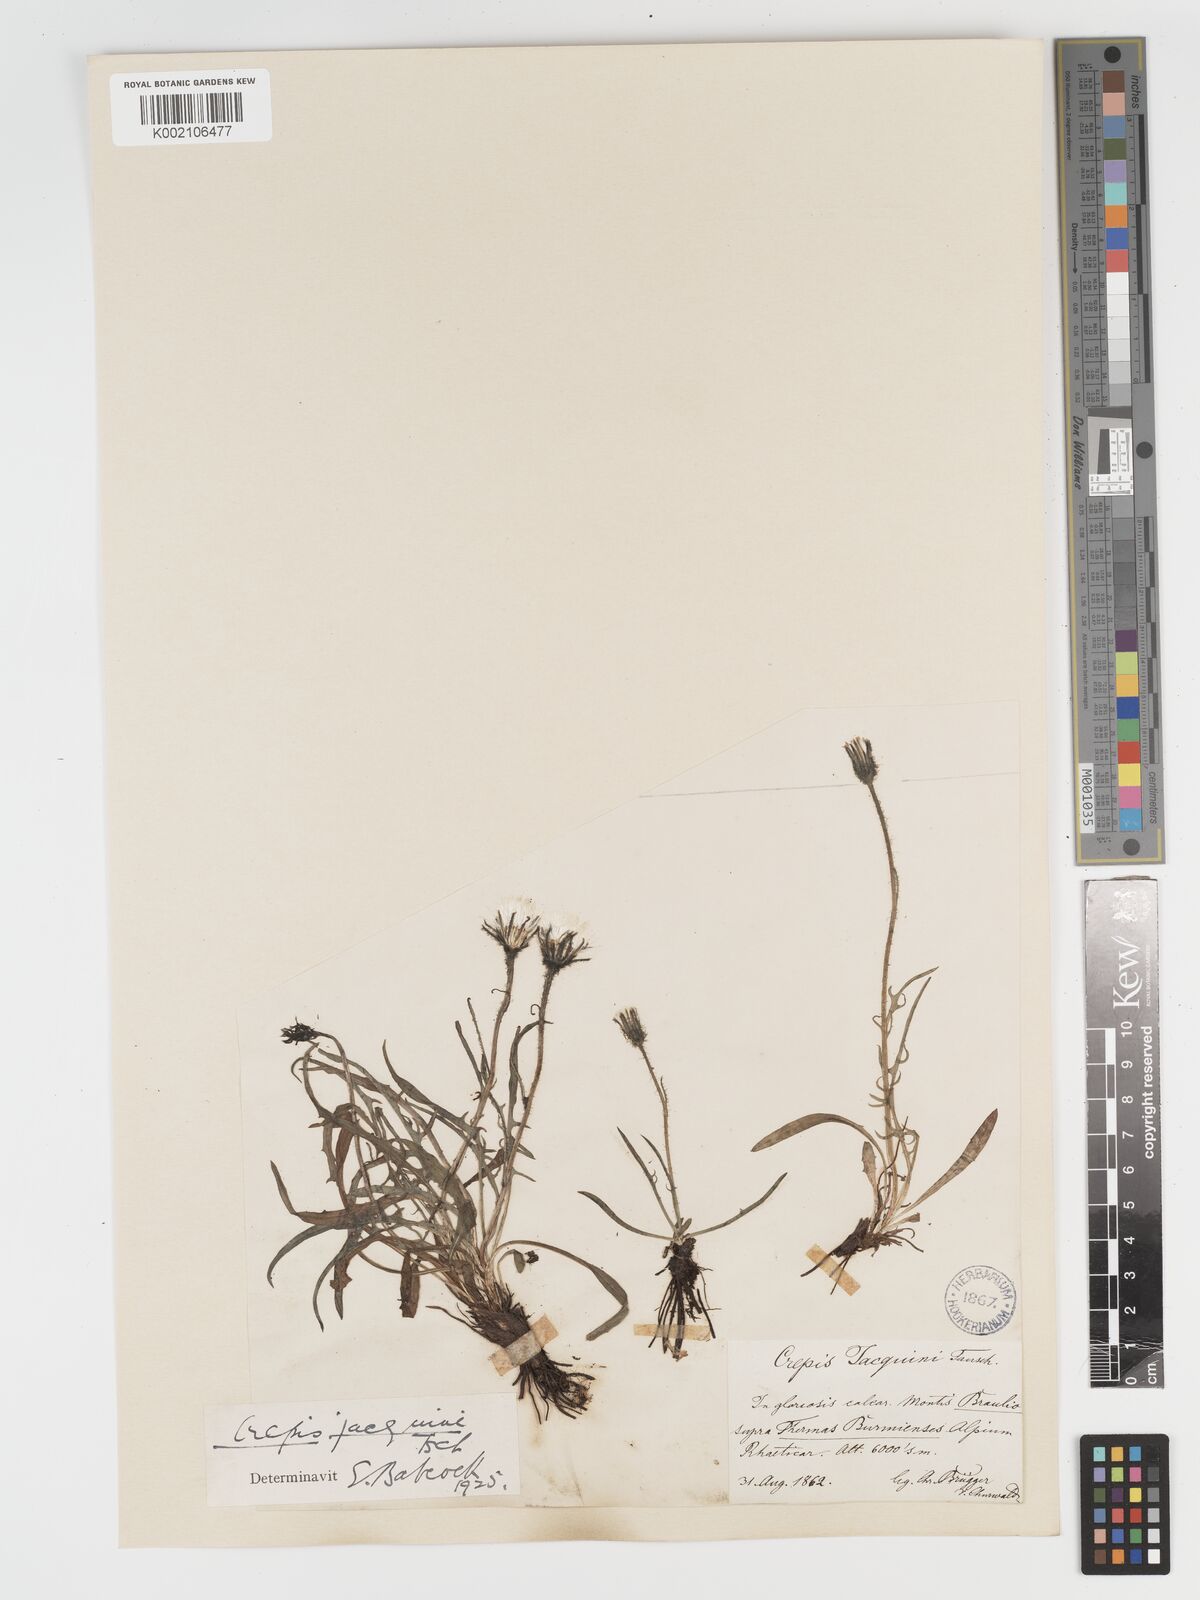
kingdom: Plantae
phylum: Tracheophyta
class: Magnoliopsida
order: Asterales
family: Asteraceae
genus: Crepis
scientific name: Crepis jacquinii
